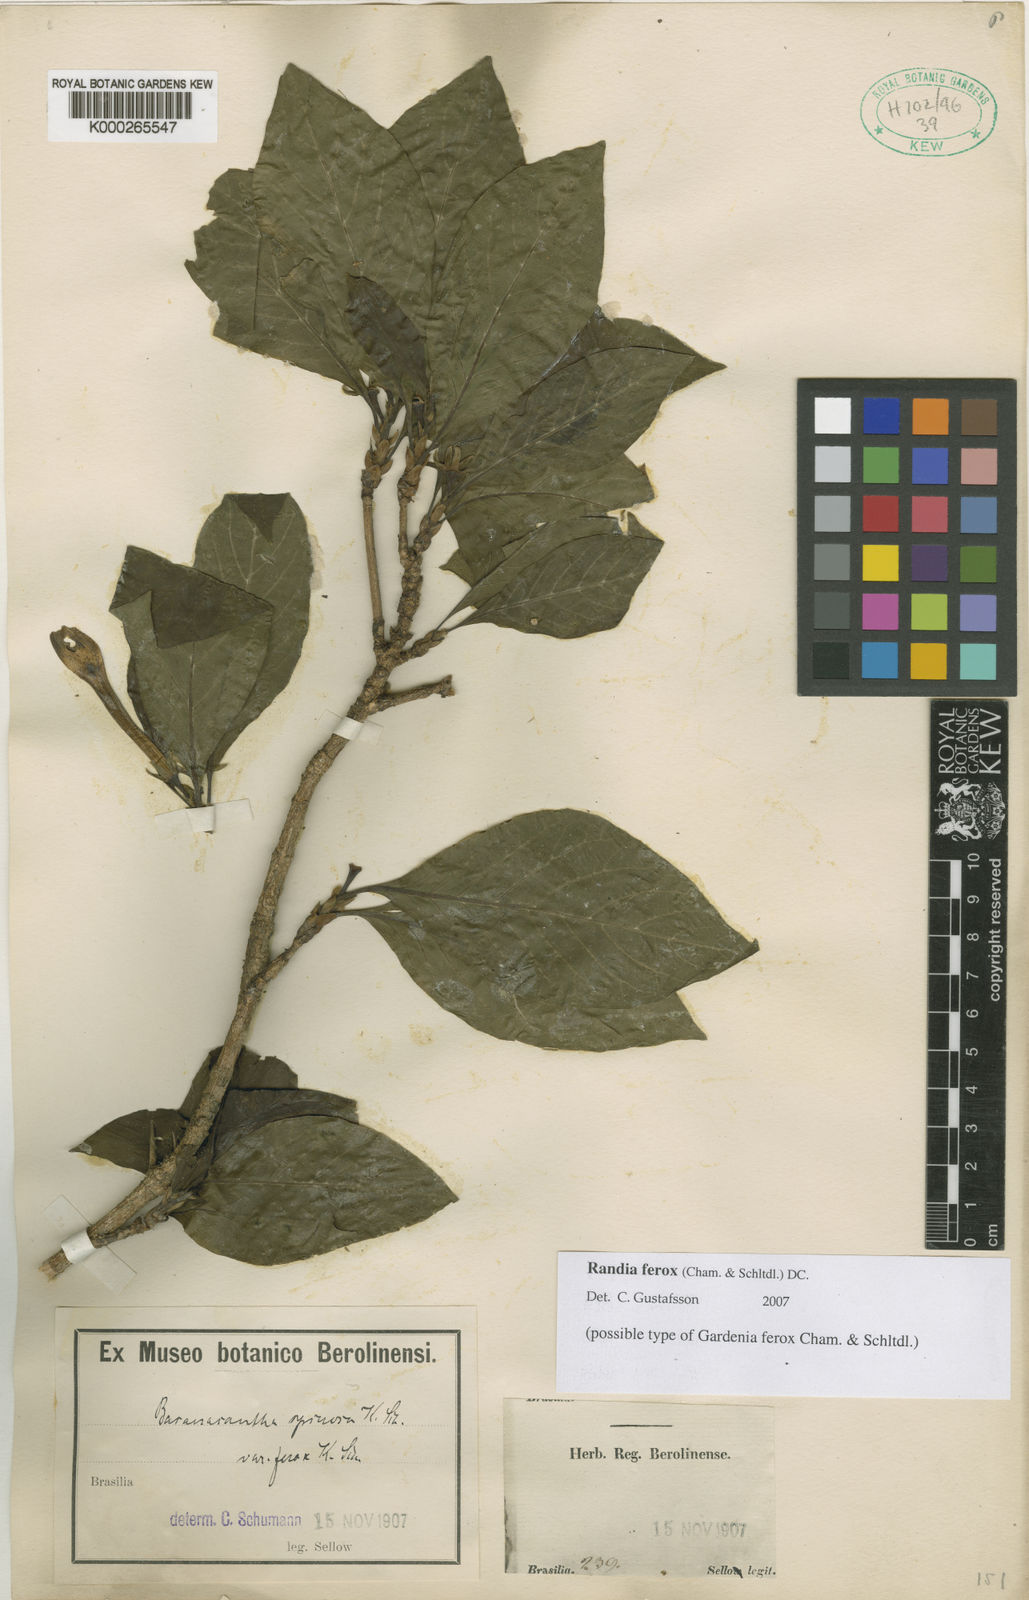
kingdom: Plantae
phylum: Tracheophyta
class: Magnoliopsida
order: Gentianales
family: Rubiaceae
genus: Randia
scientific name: Randia ferox
